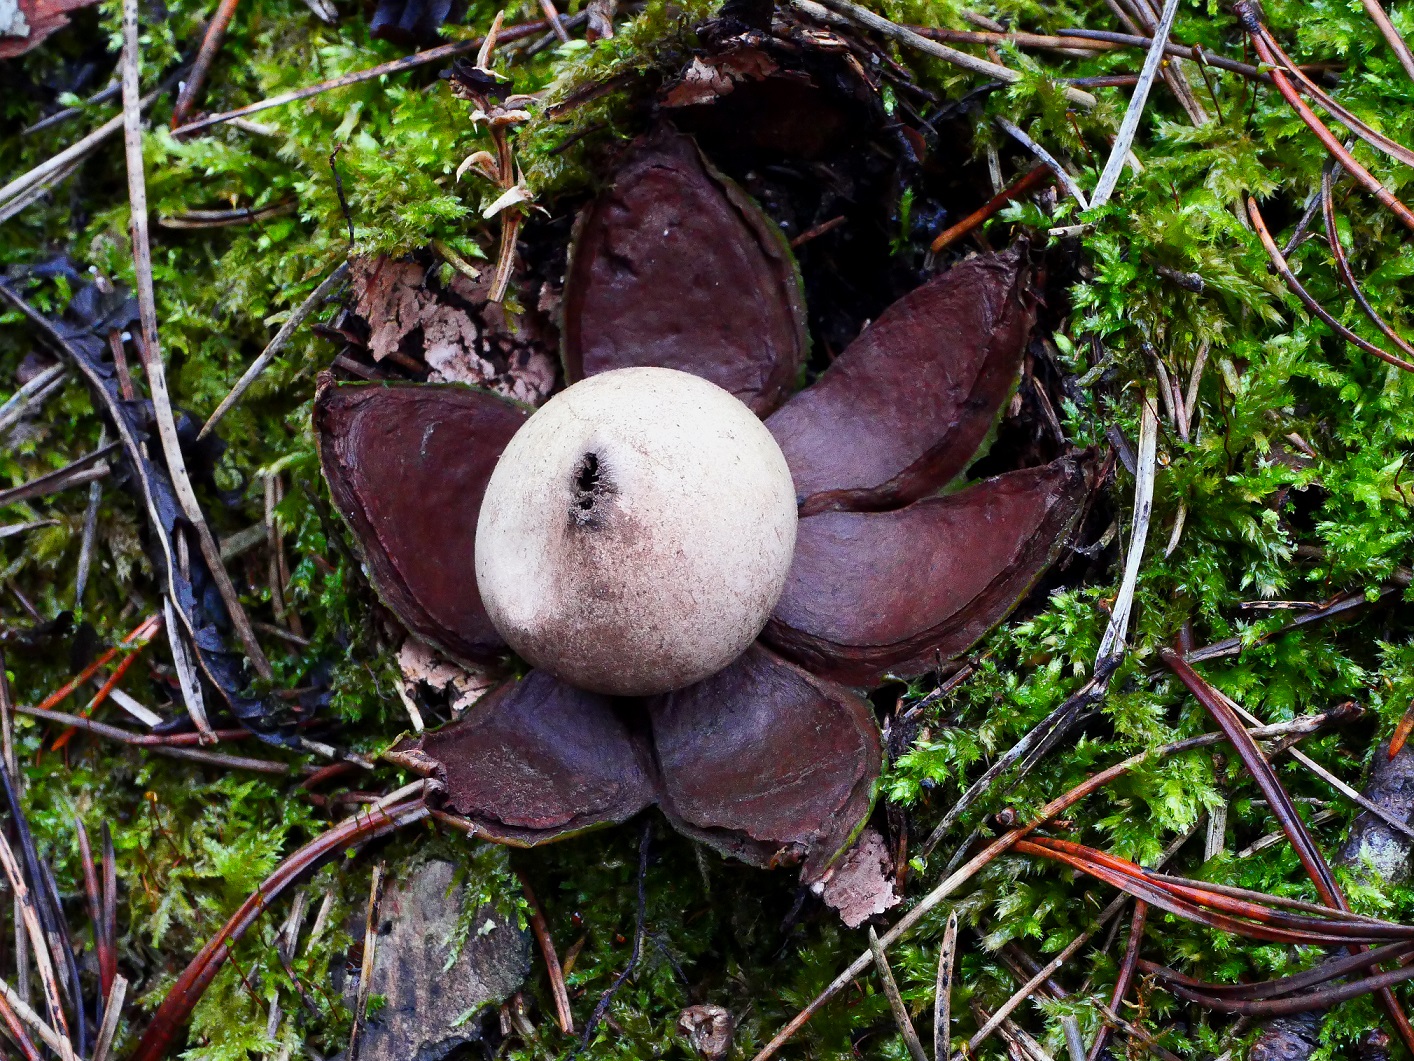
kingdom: Fungi
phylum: Basidiomycota
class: Agaricomycetes
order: Geastrales
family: Geastraceae
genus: Geastrum
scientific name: Geastrum rufescens
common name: kødfarvet stjernebold
